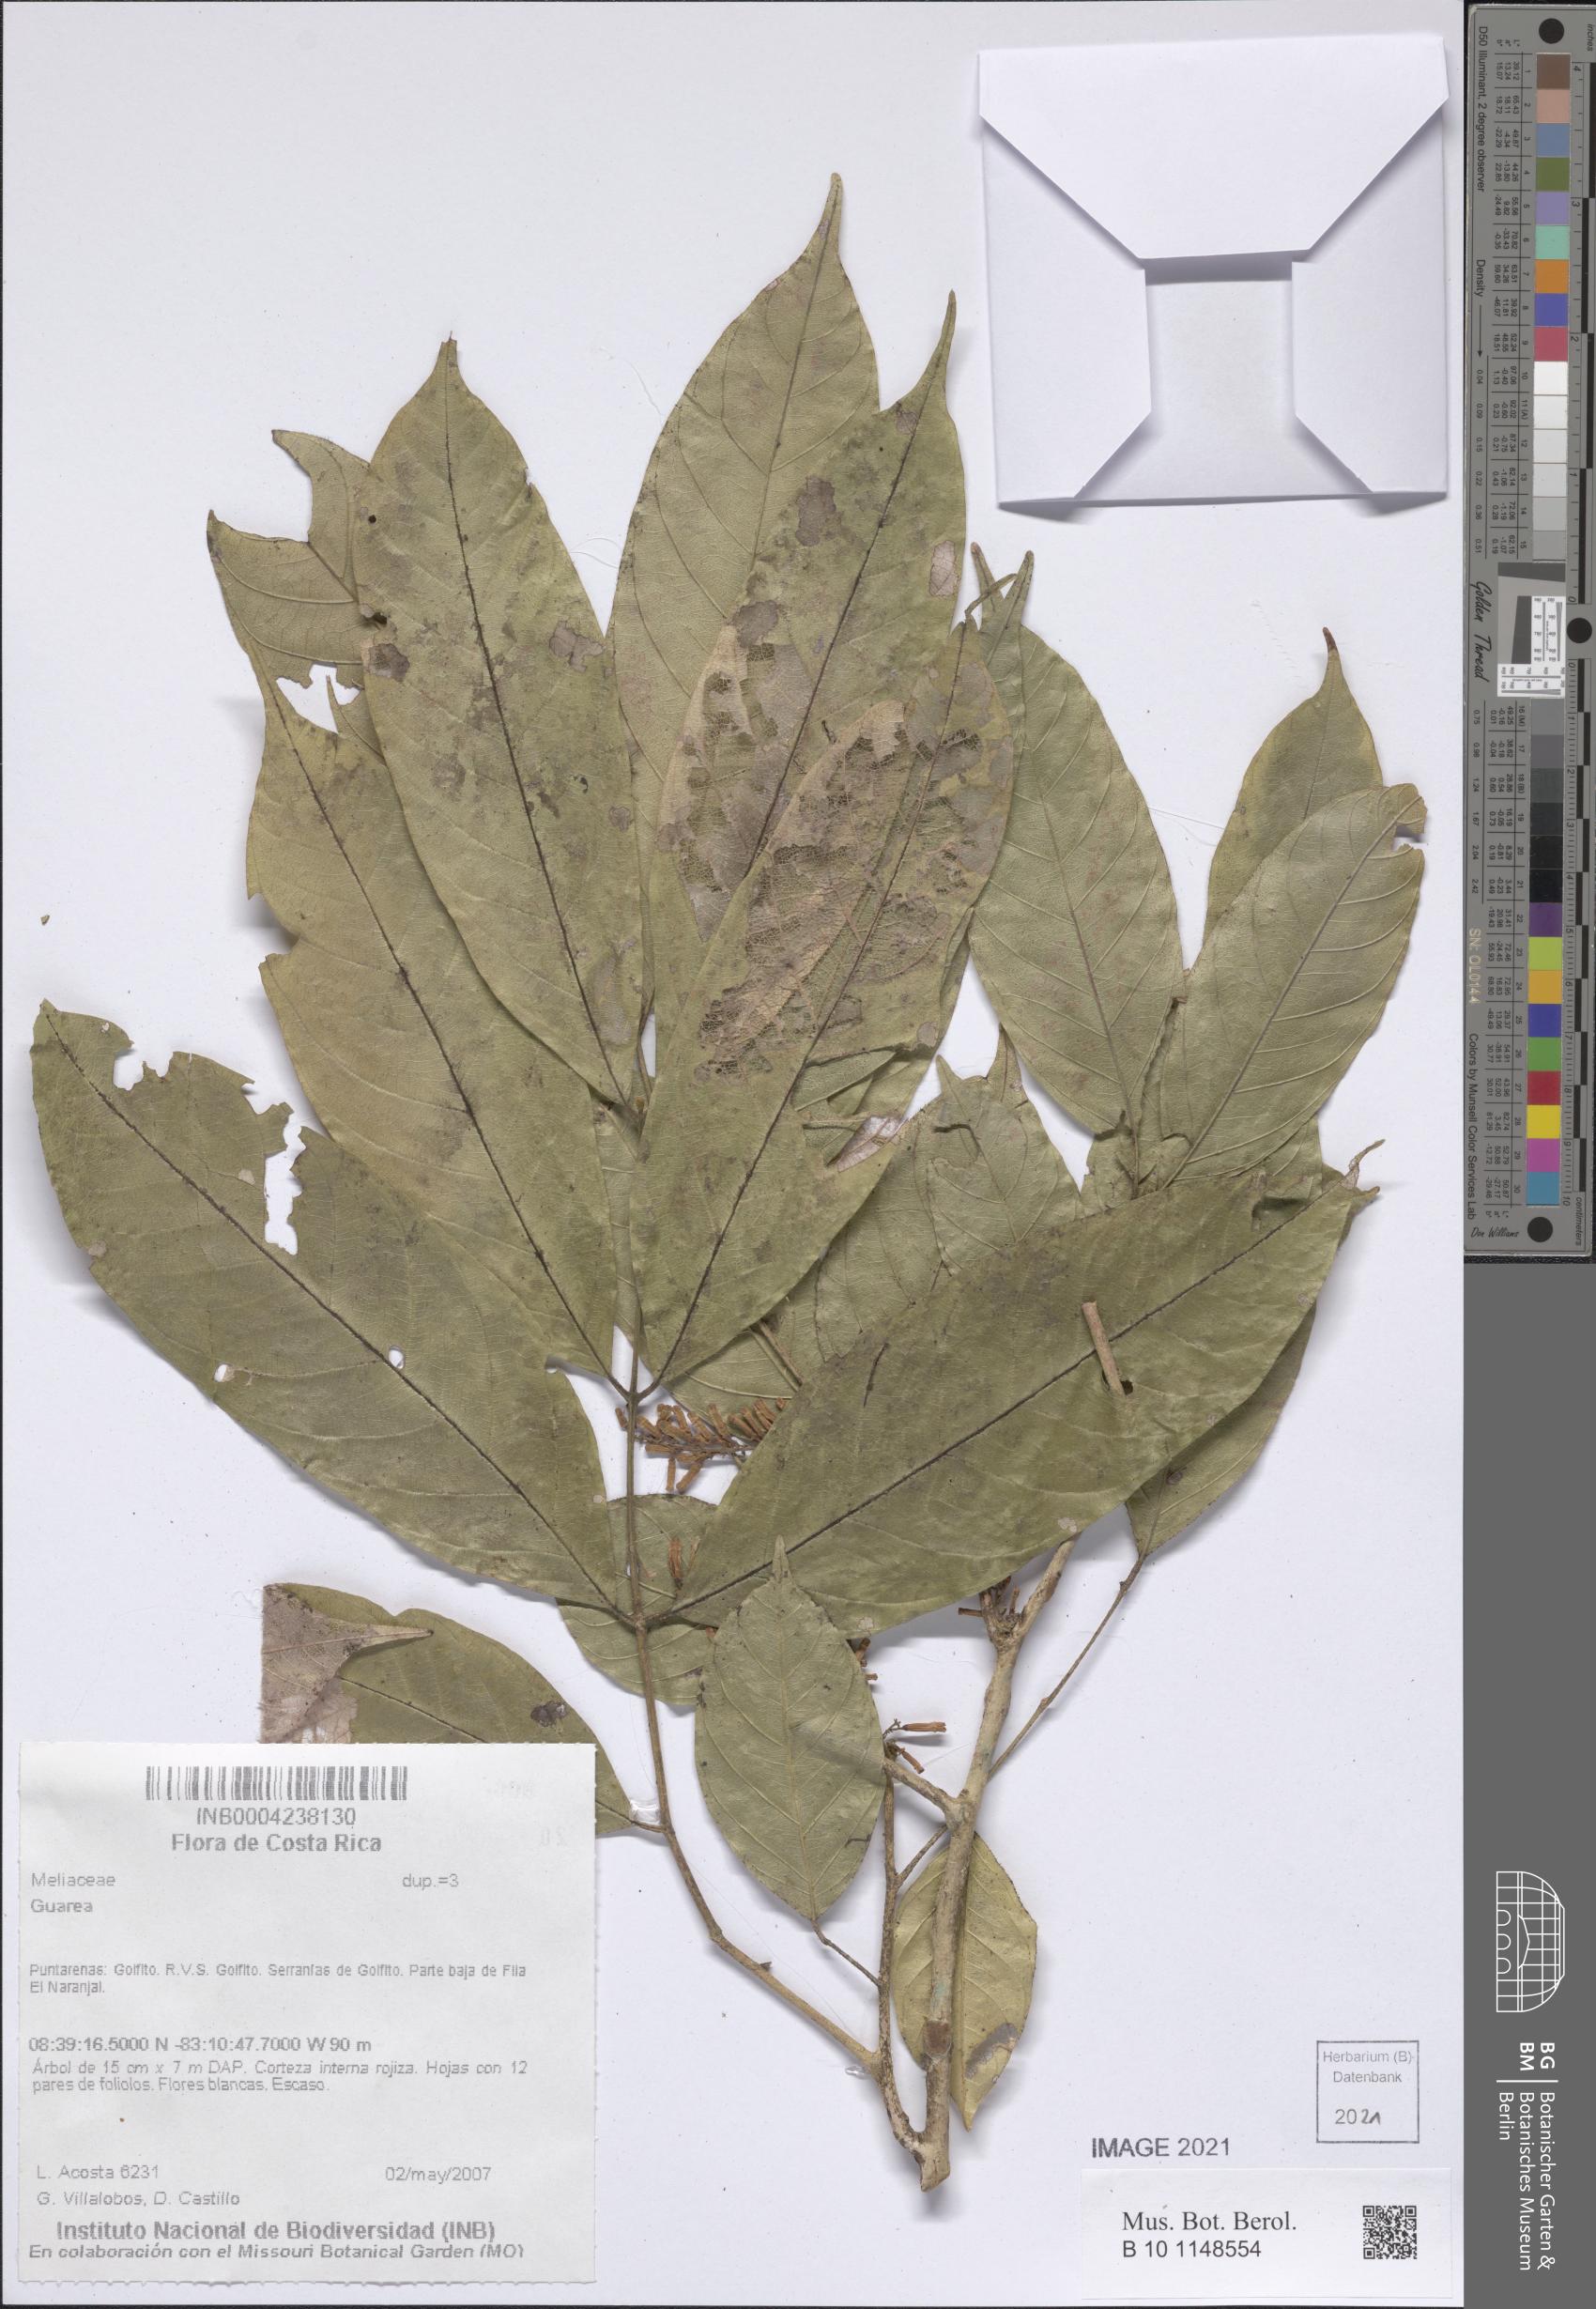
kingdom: Plantae
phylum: Tracheophyta
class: Magnoliopsida
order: Sapindales
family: Meliaceae
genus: Guarea
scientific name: Guarea
